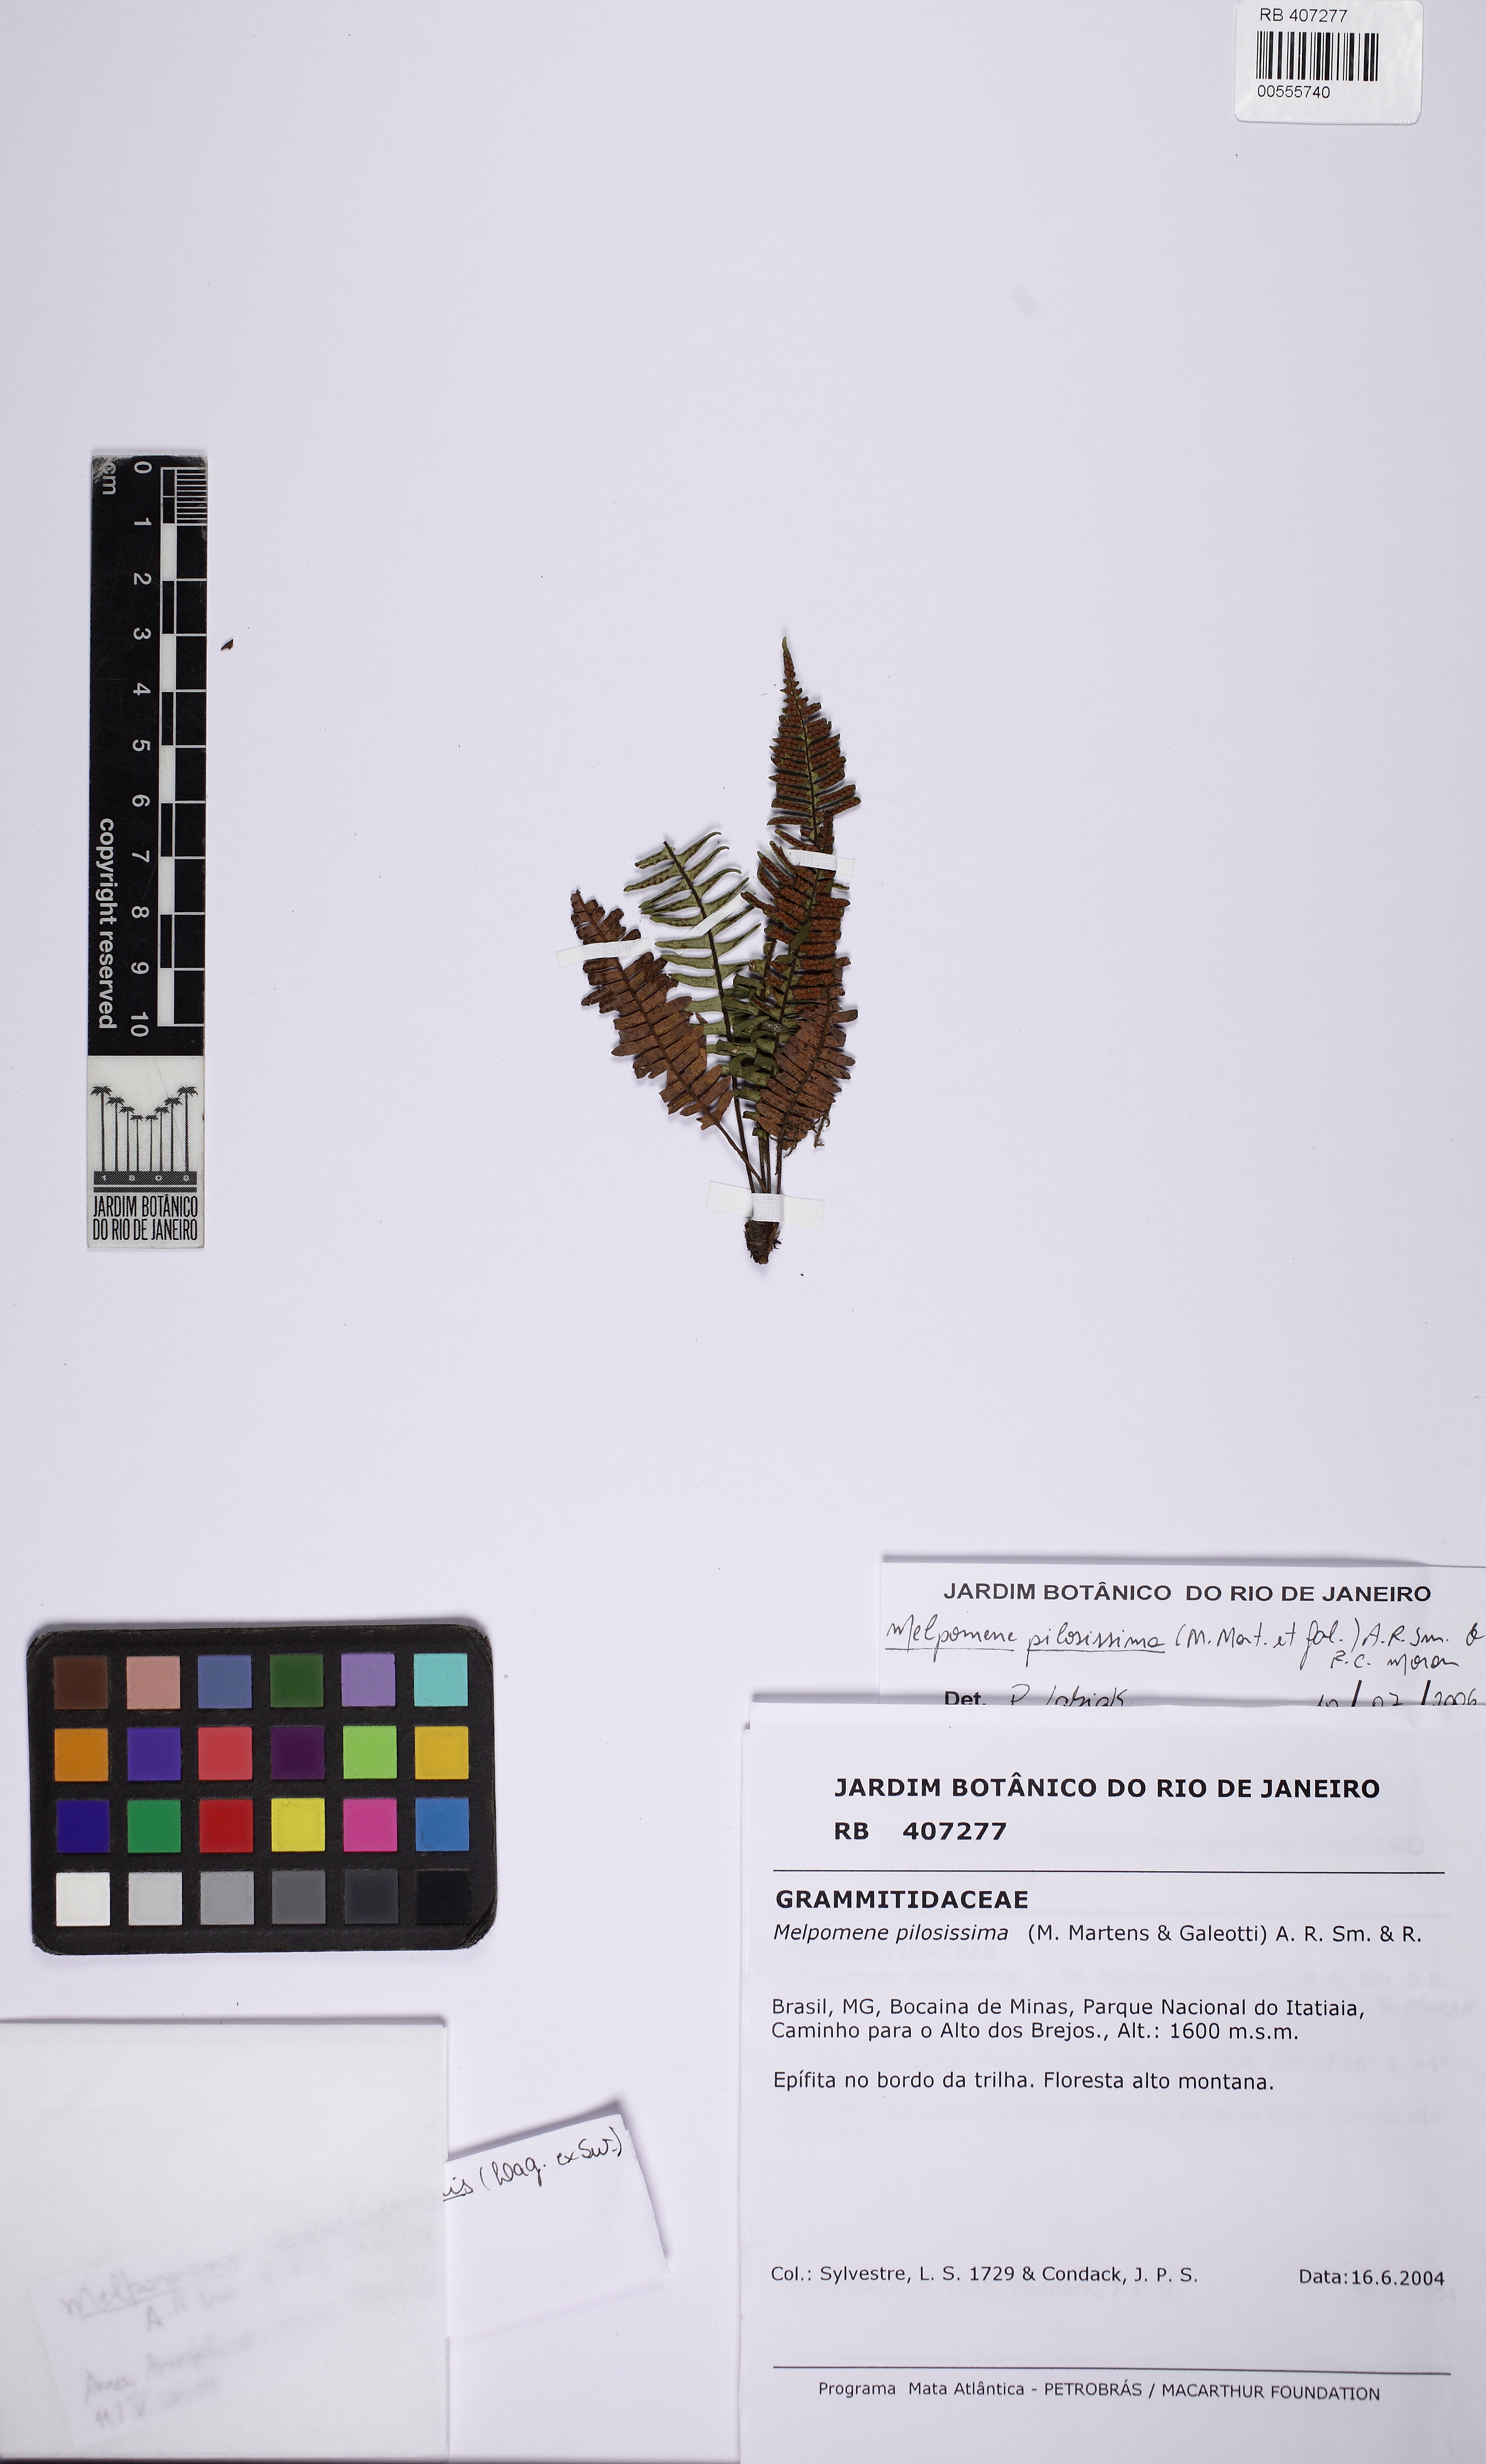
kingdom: Plantae
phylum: Tracheophyta
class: Polypodiopsida
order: Polypodiales
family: Polypodiaceae
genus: Melpomene
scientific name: Melpomene pilosissima
